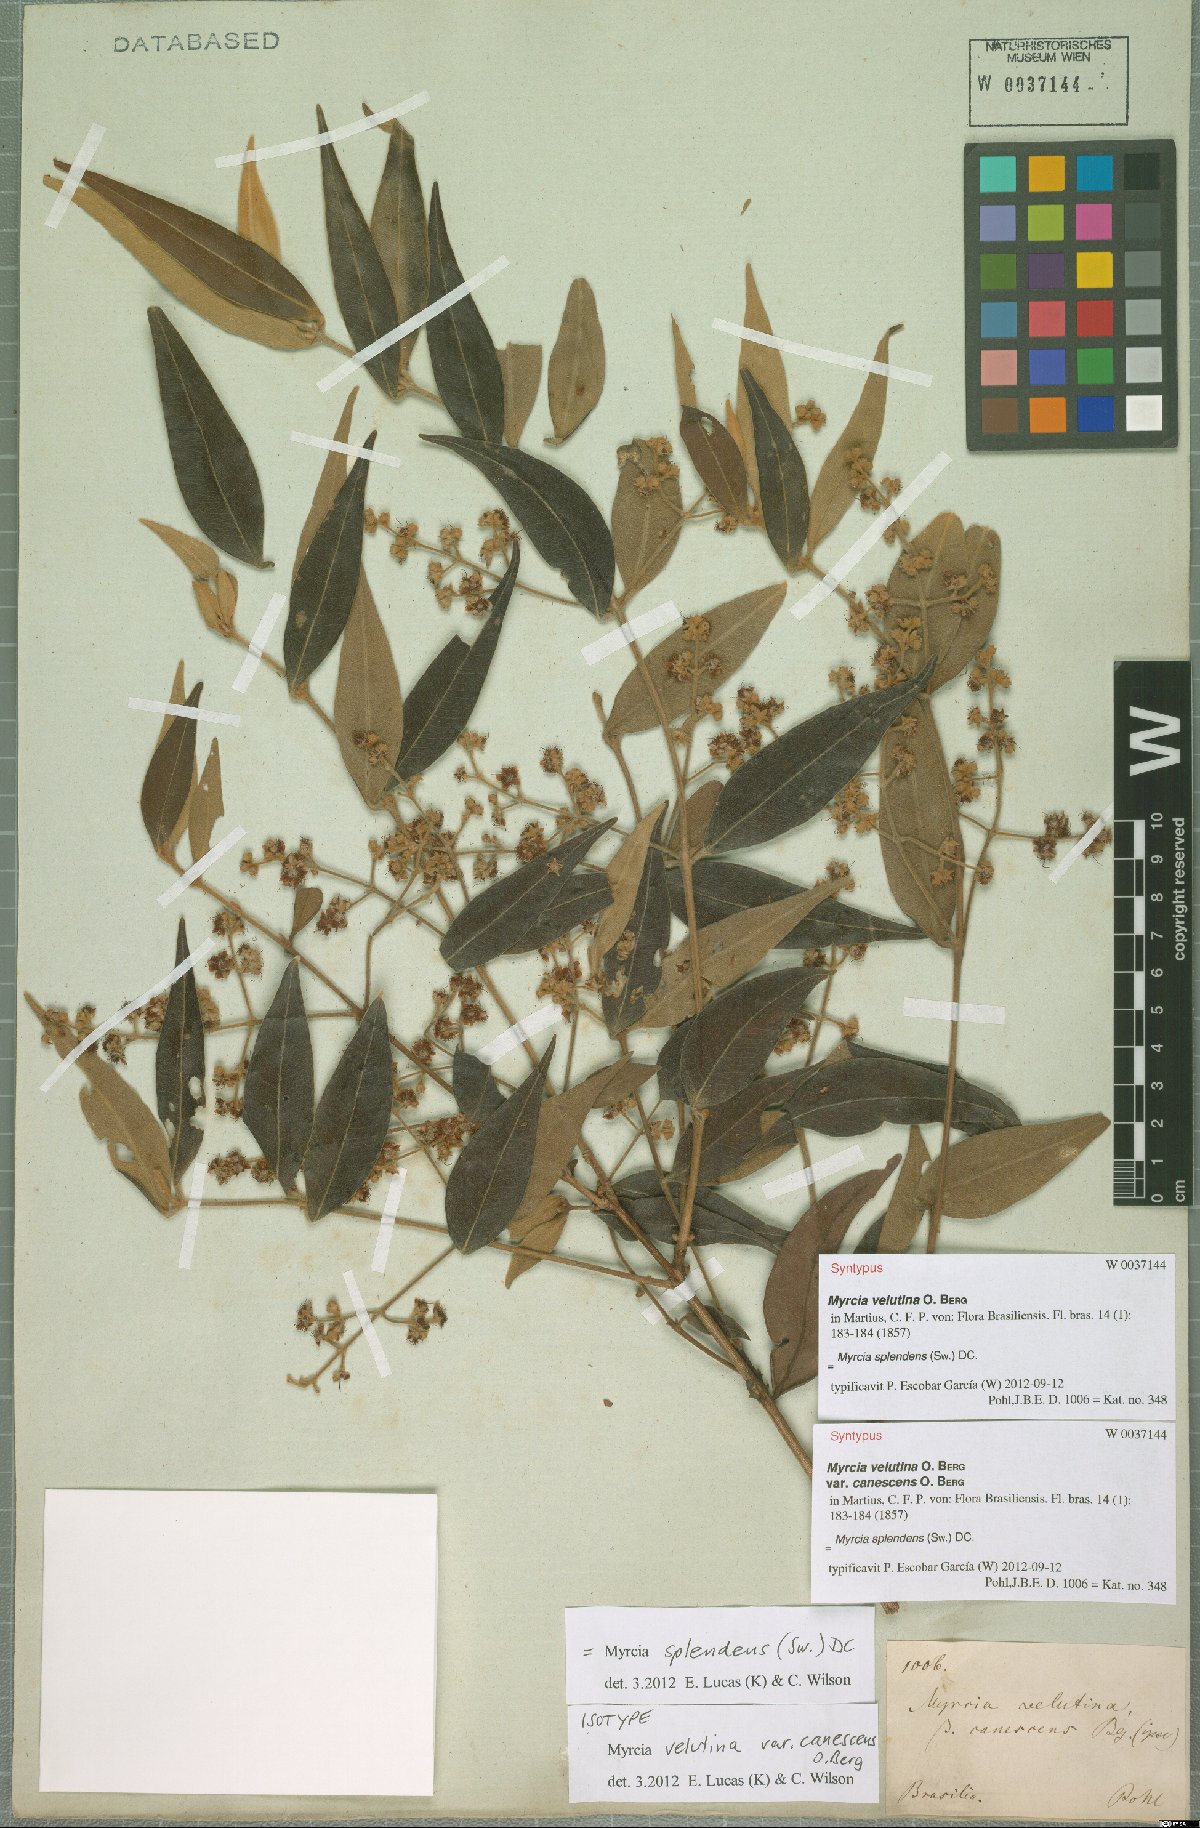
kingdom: Plantae
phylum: Tracheophyta
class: Magnoliopsida
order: Myrtales
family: Myrtaceae
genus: Myrcia
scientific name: Myrcia splendens
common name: Surinam cherry
